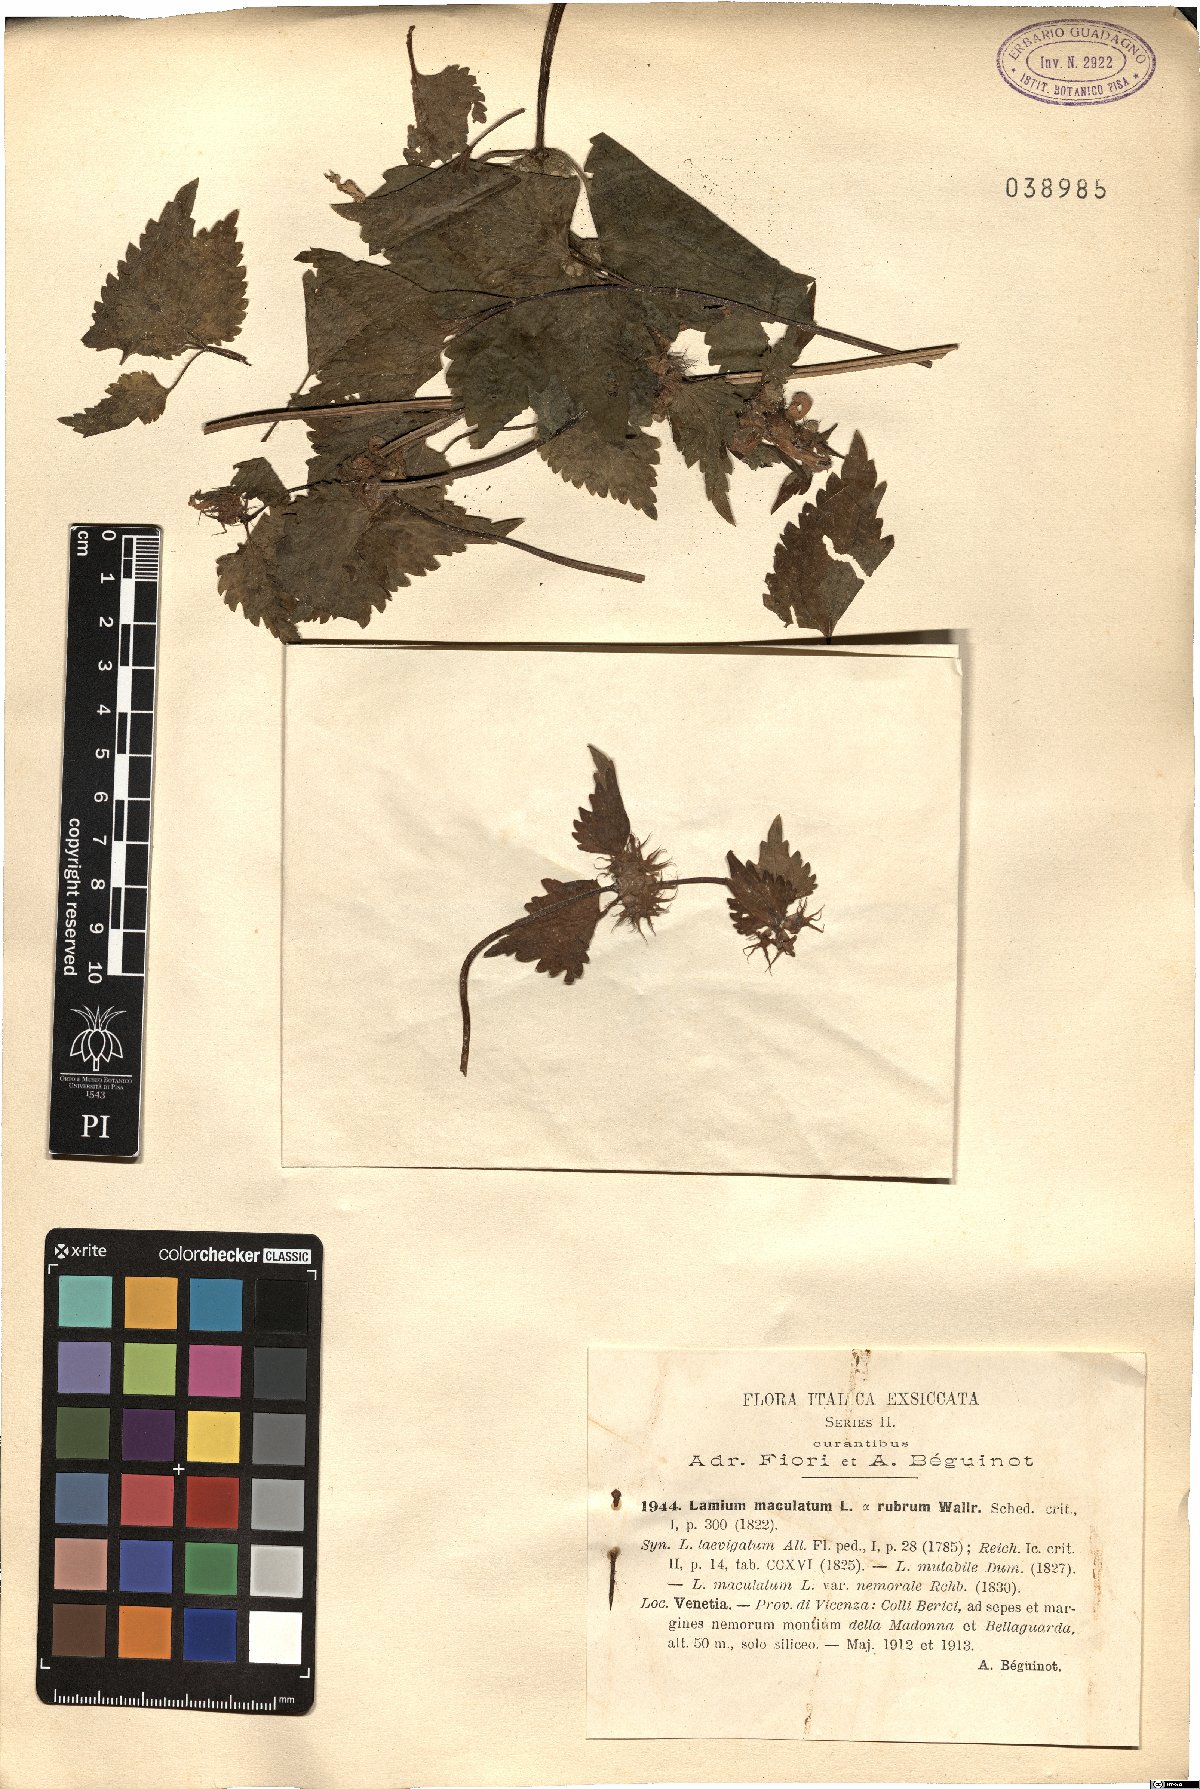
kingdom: Plantae
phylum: Tracheophyta
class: Magnoliopsida
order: Lamiales
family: Lamiaceae
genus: Lamium
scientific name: Lamium maculatum
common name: Spotted dead-nettle
